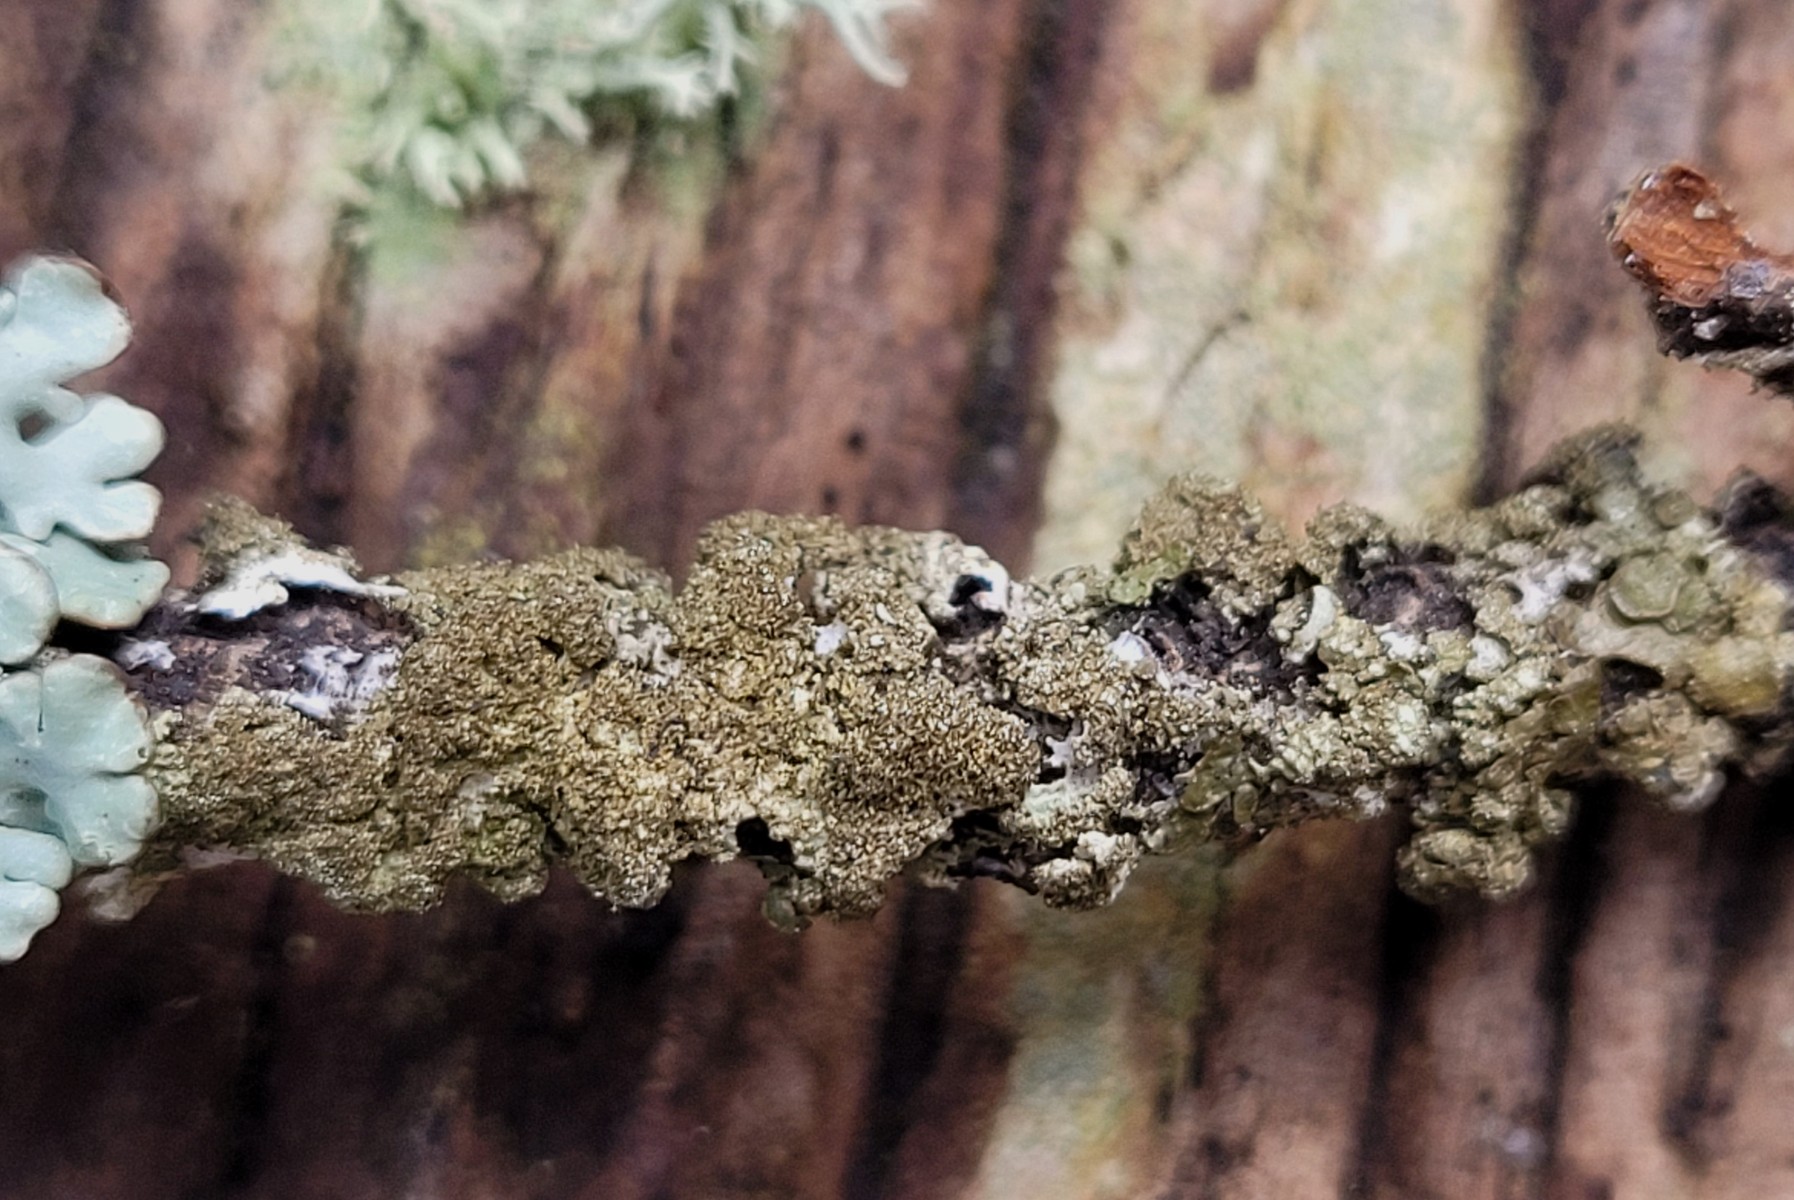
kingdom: Fungi
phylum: Ascomycota
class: Lecanoromycetes
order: Lecanorales
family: Parmeliaceae
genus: Melanelixia
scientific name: Melanelixia subaurifera
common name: guldpudret skållav
